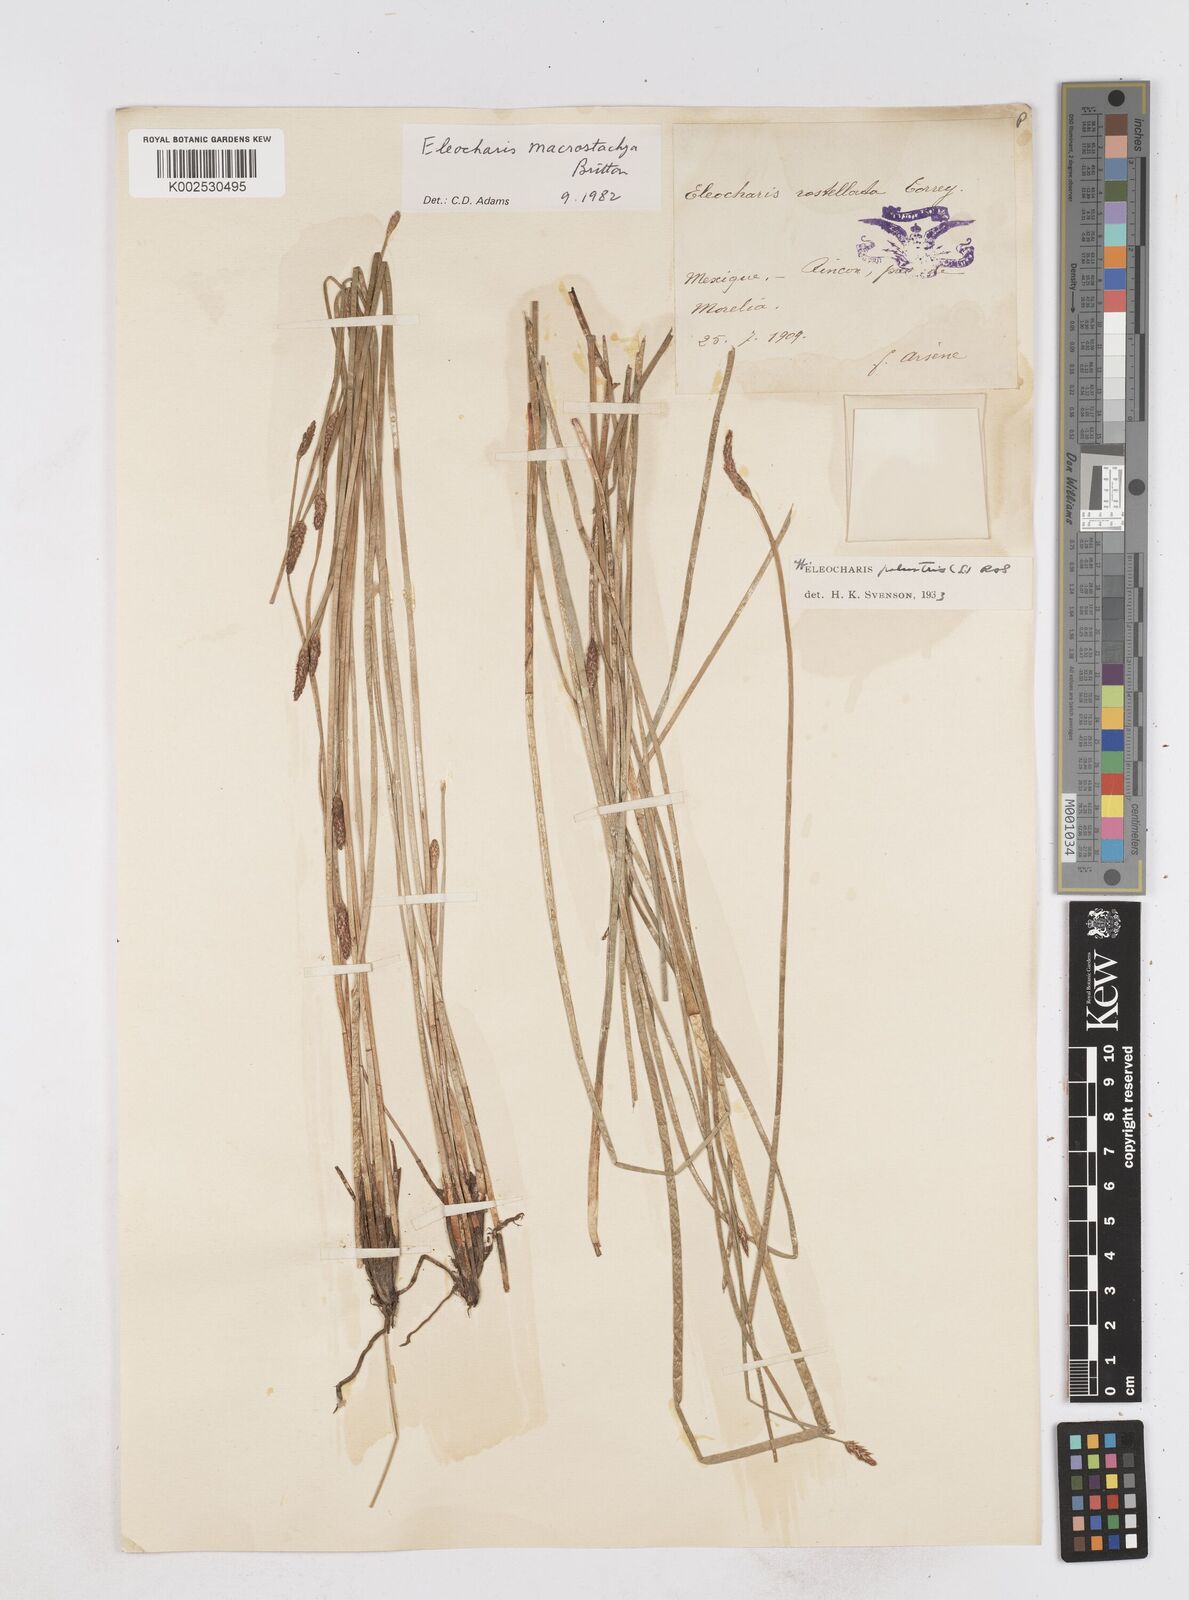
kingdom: Plantae
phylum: Tracheophyta
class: Liliopsida
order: Poales
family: Cyperaceae
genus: Eleocharis
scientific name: Eleocharis palustris
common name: Common spike-rush
